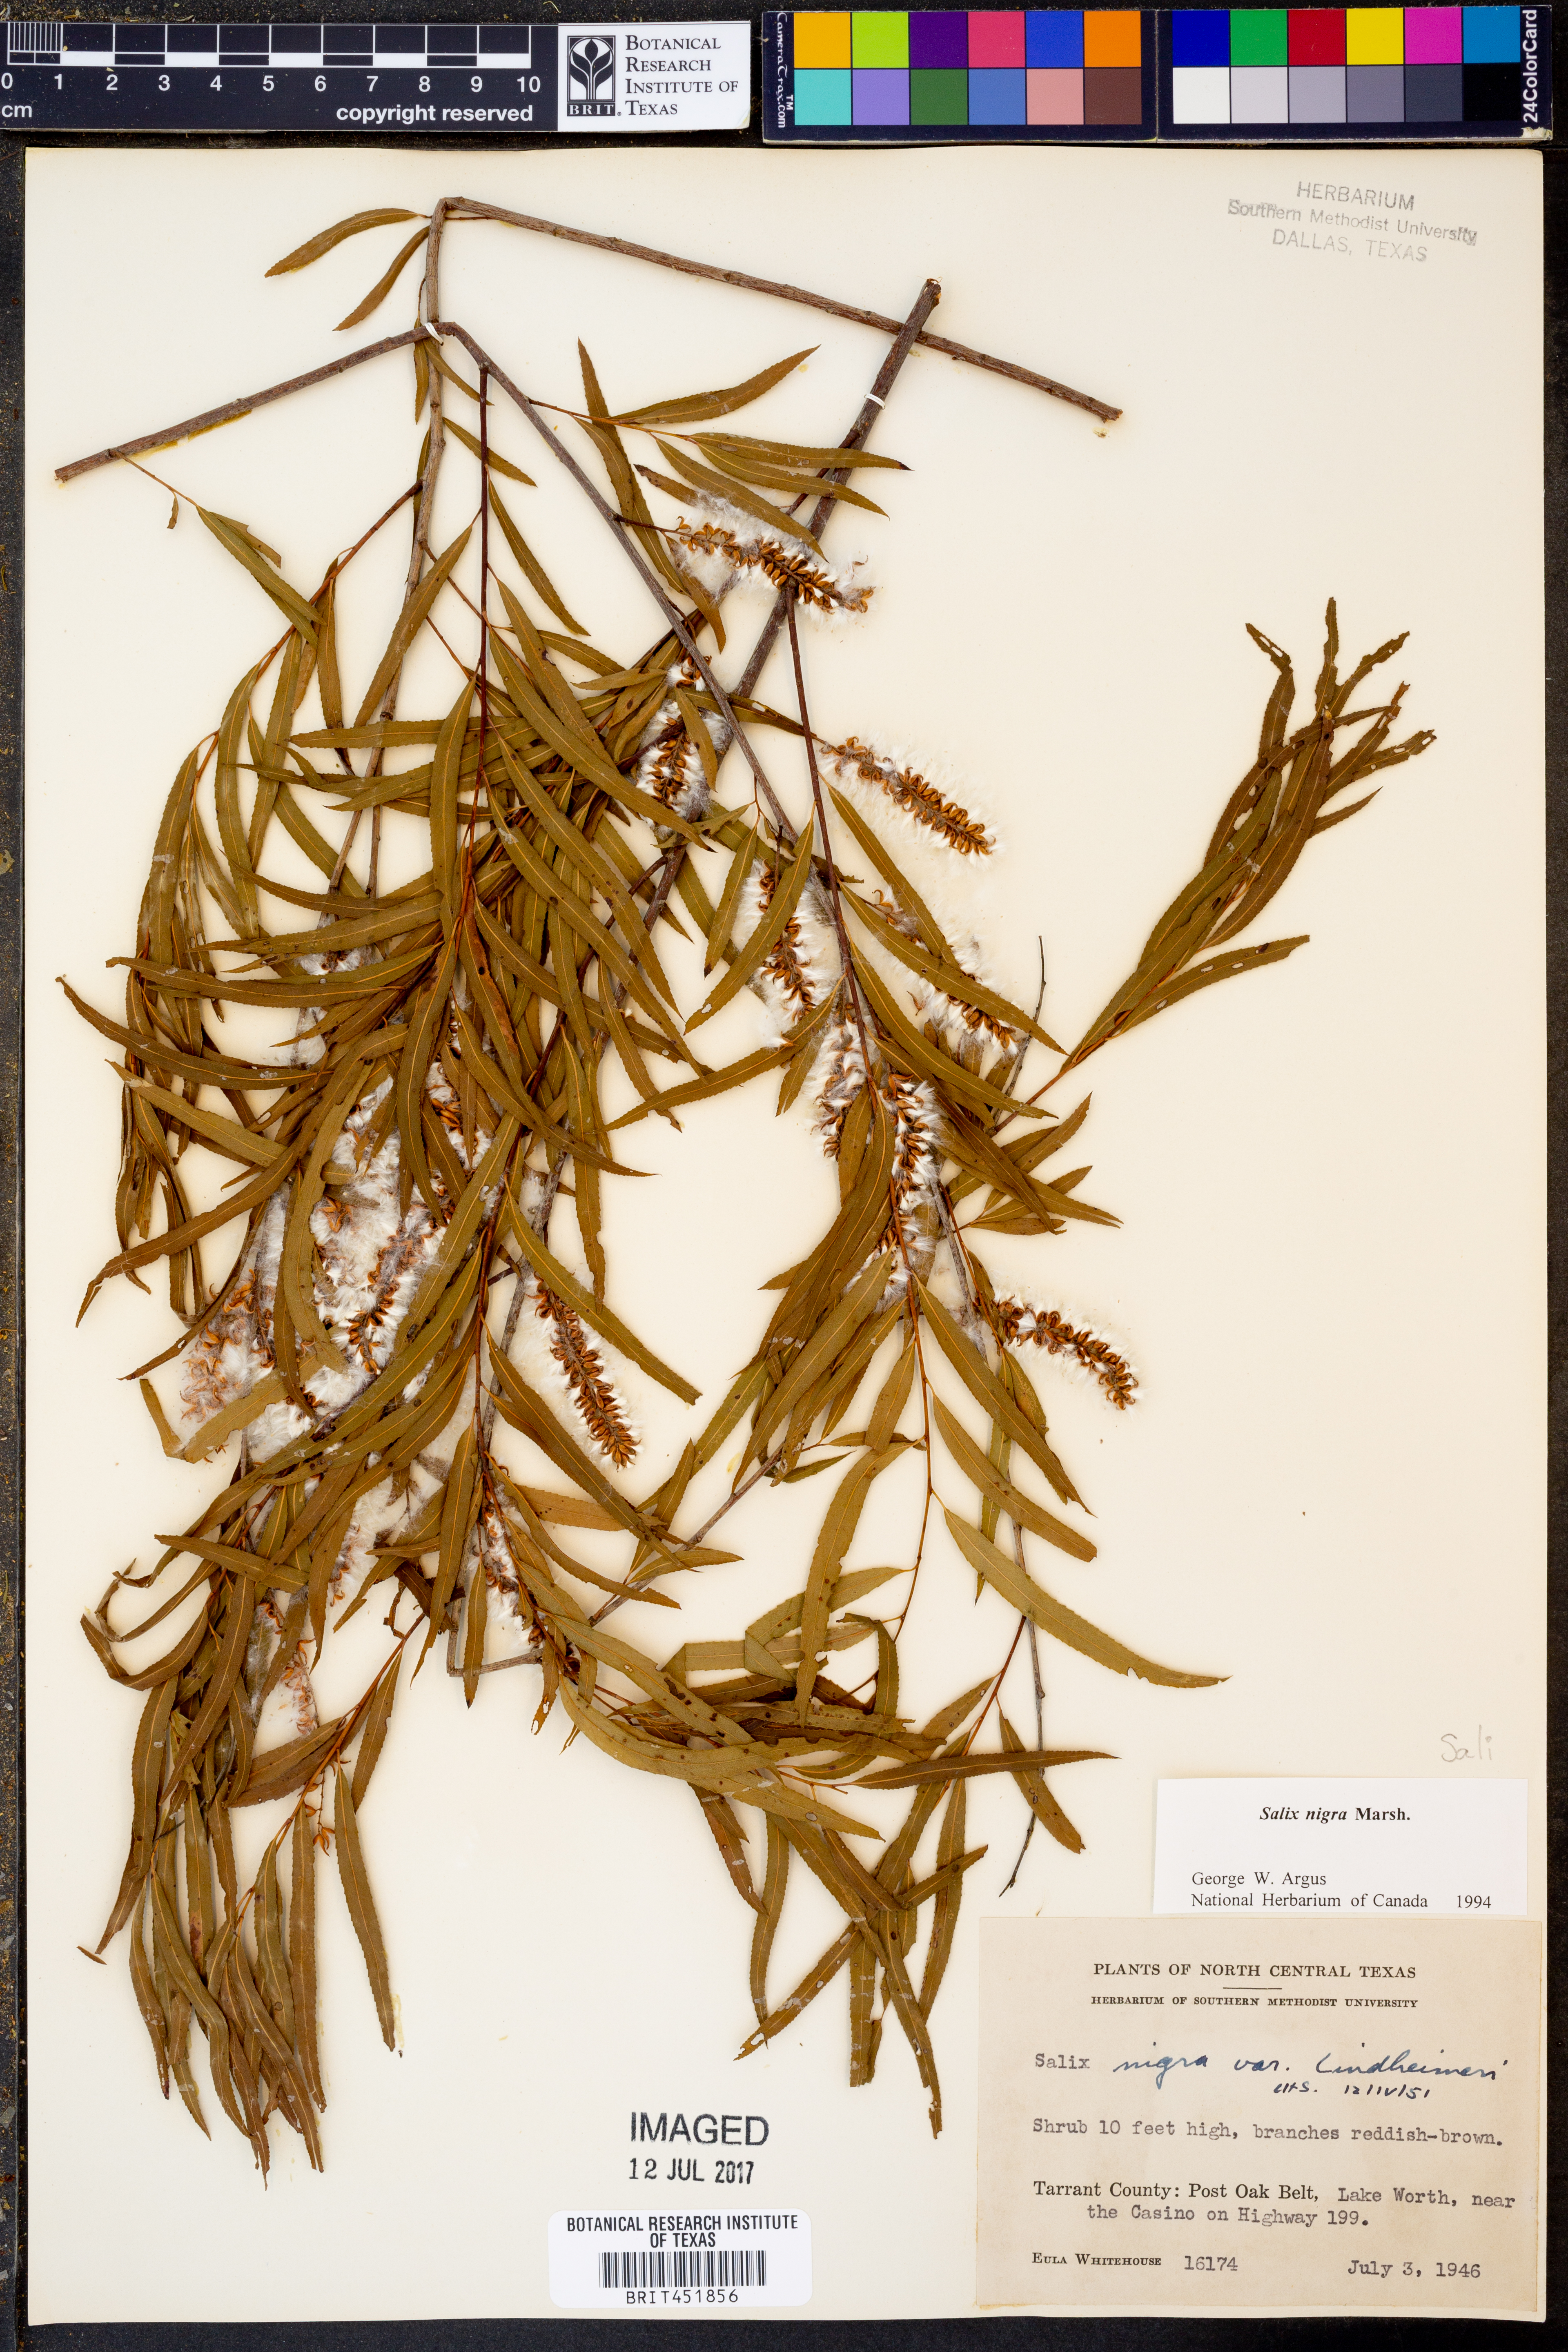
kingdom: Plantae
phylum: Tracheophyta
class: Magnoliopsida
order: Malpighiales
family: Salicaceae
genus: Salix
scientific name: Salix nigra
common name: Black willow
